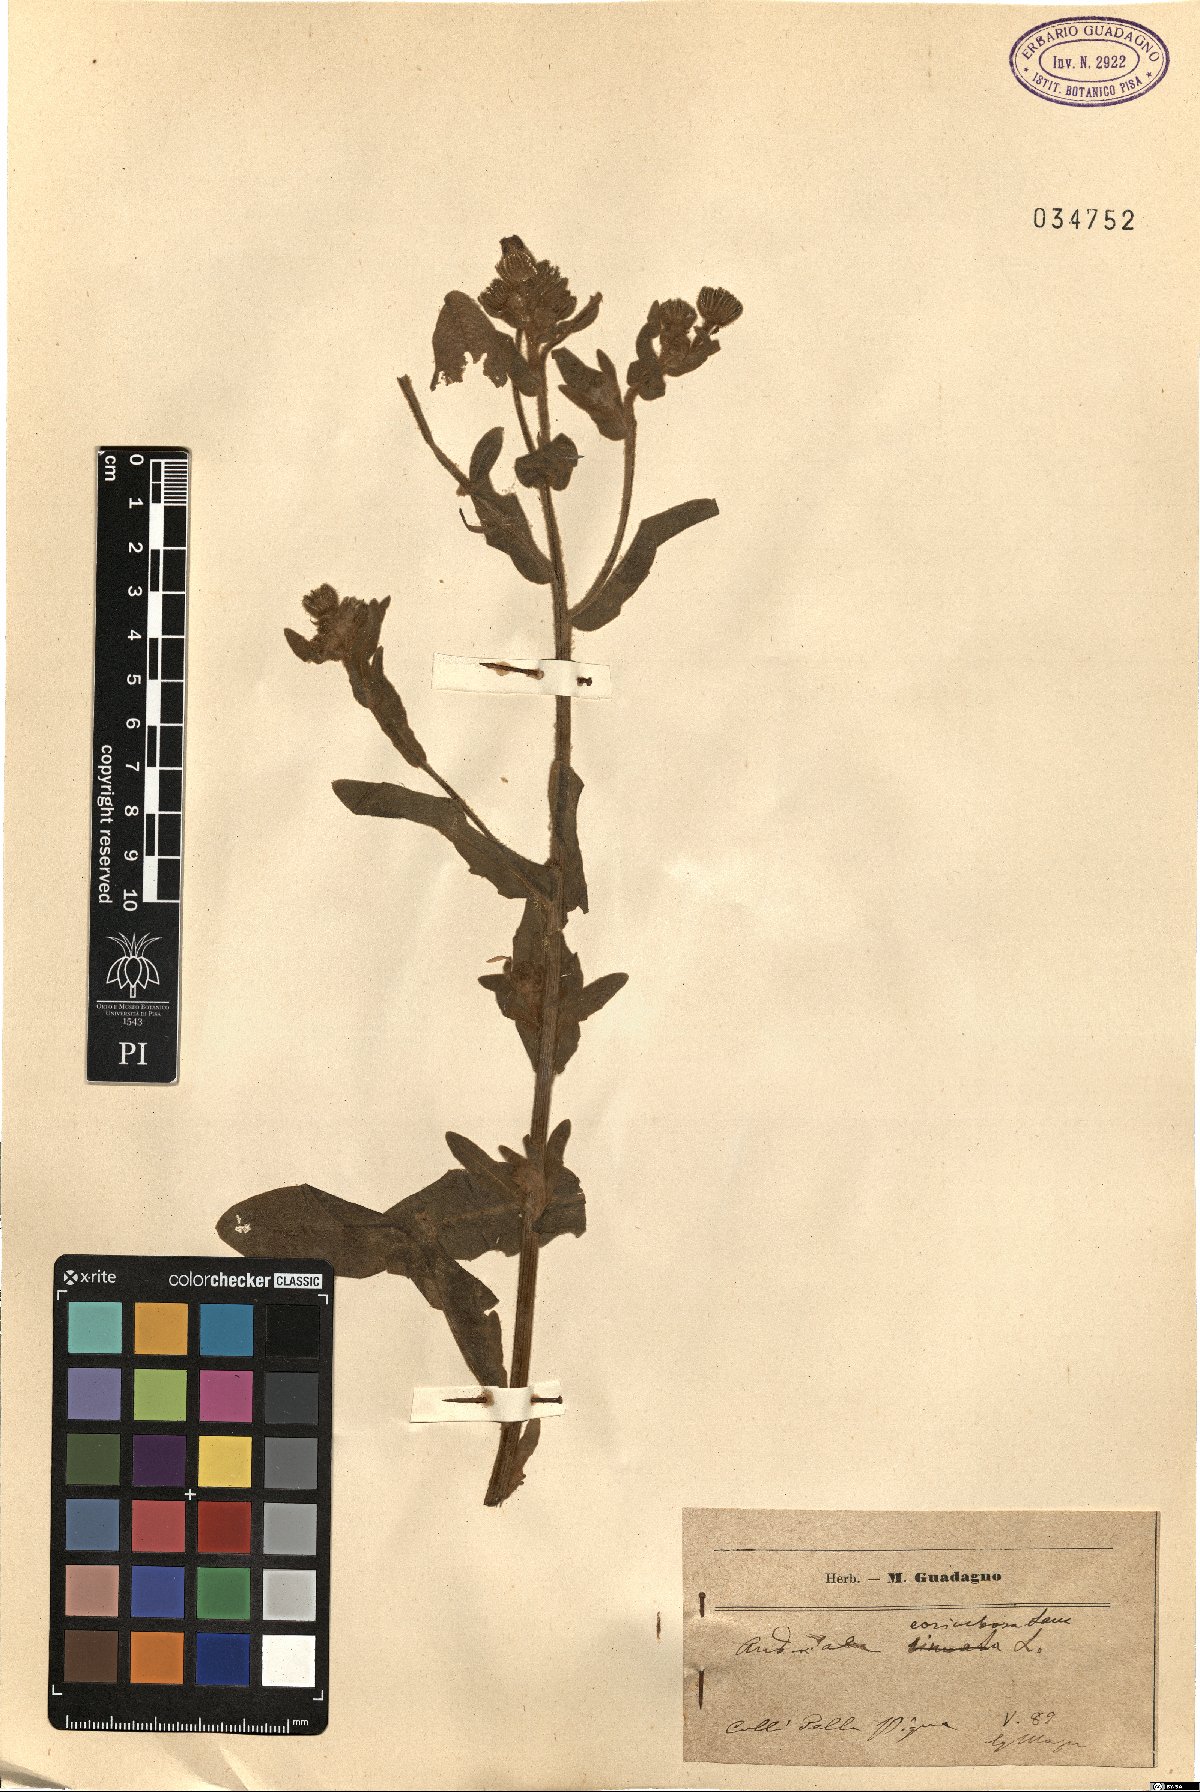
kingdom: Plantae
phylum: Tracheophyta
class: Magnoliopsida
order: Asterales
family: Asteraceae
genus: Andryala
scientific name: Andryala integrifolia
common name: Common andryala
